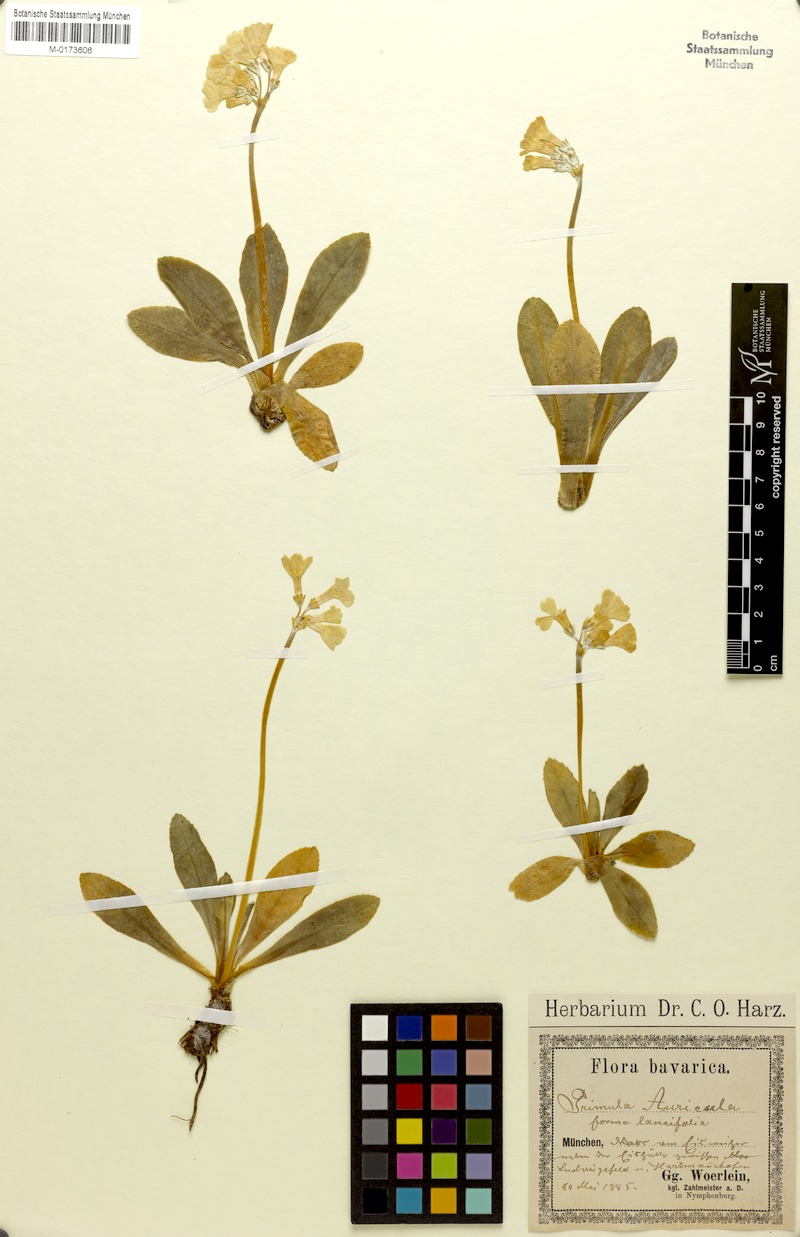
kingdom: Plantae
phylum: Tracheophyta
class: Magnoliopsida
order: Ericales
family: Primulaceae
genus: Primula
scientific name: Primula auricula
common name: Auricula
